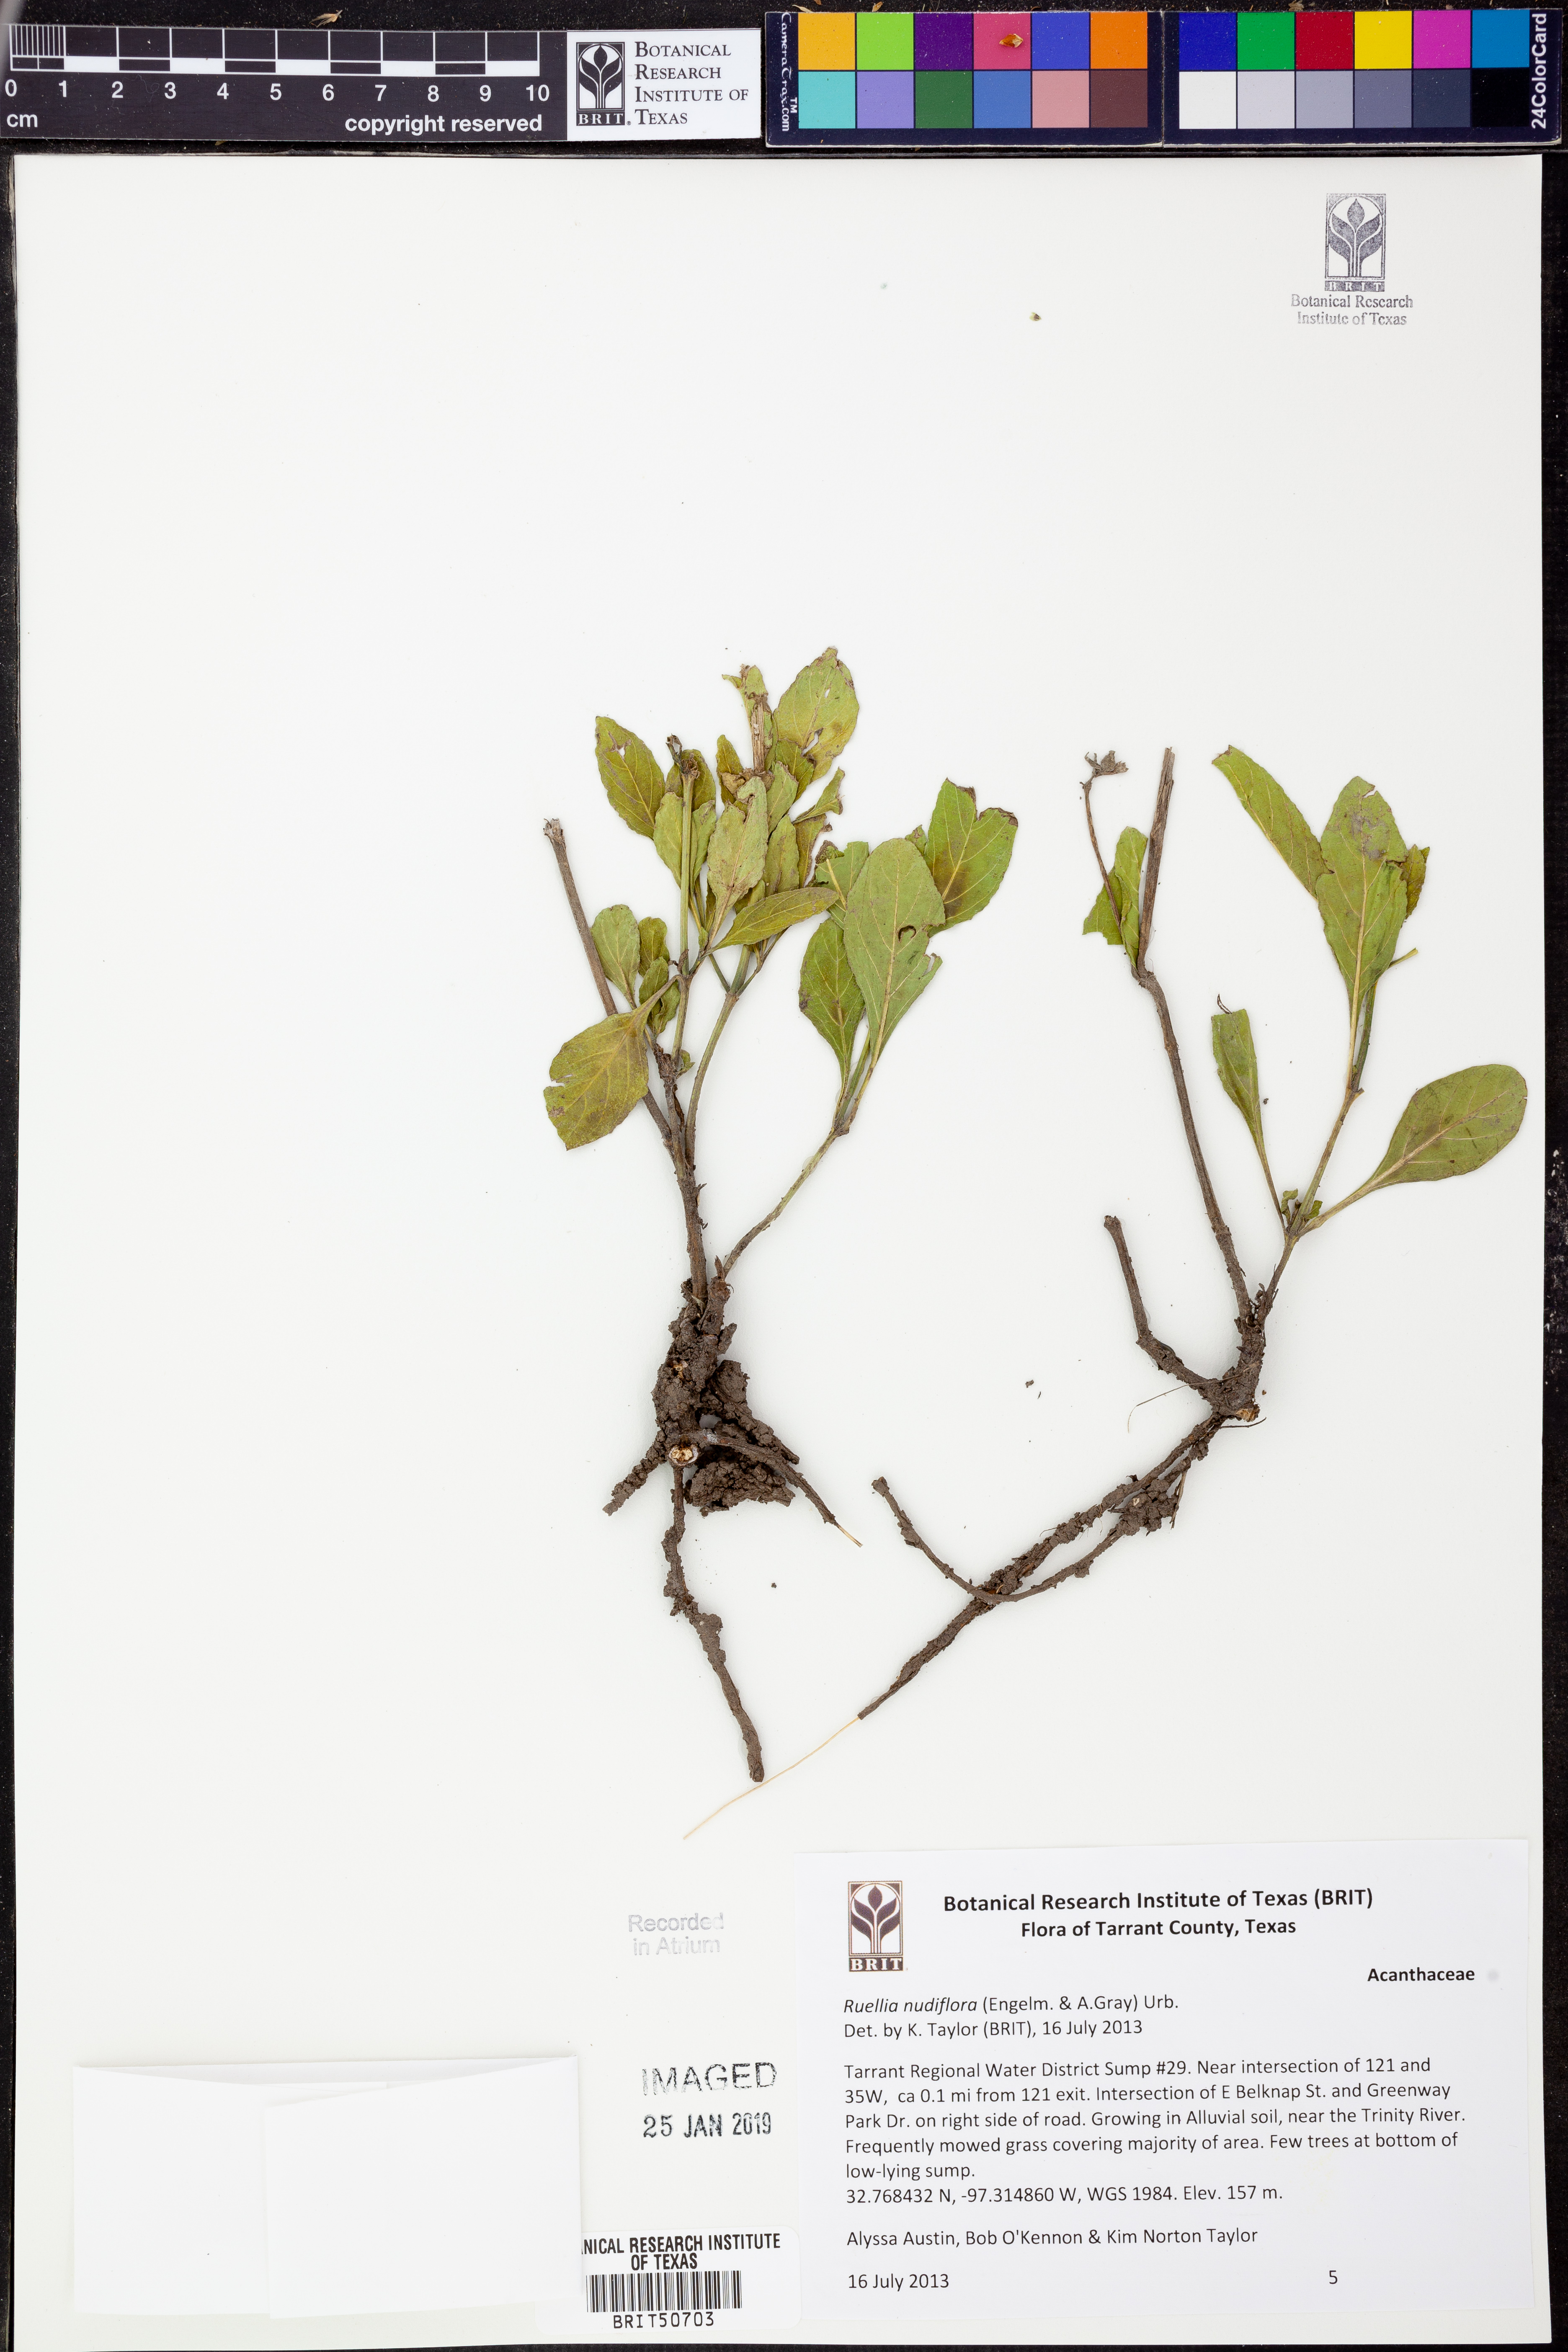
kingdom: Plantae
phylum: Tracheophyta
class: Magnoliopsida
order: Lamiales
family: Acanthaceae
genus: Ruellia
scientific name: Ruellia ciliatiflora
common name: Hairyflower wild petunia
